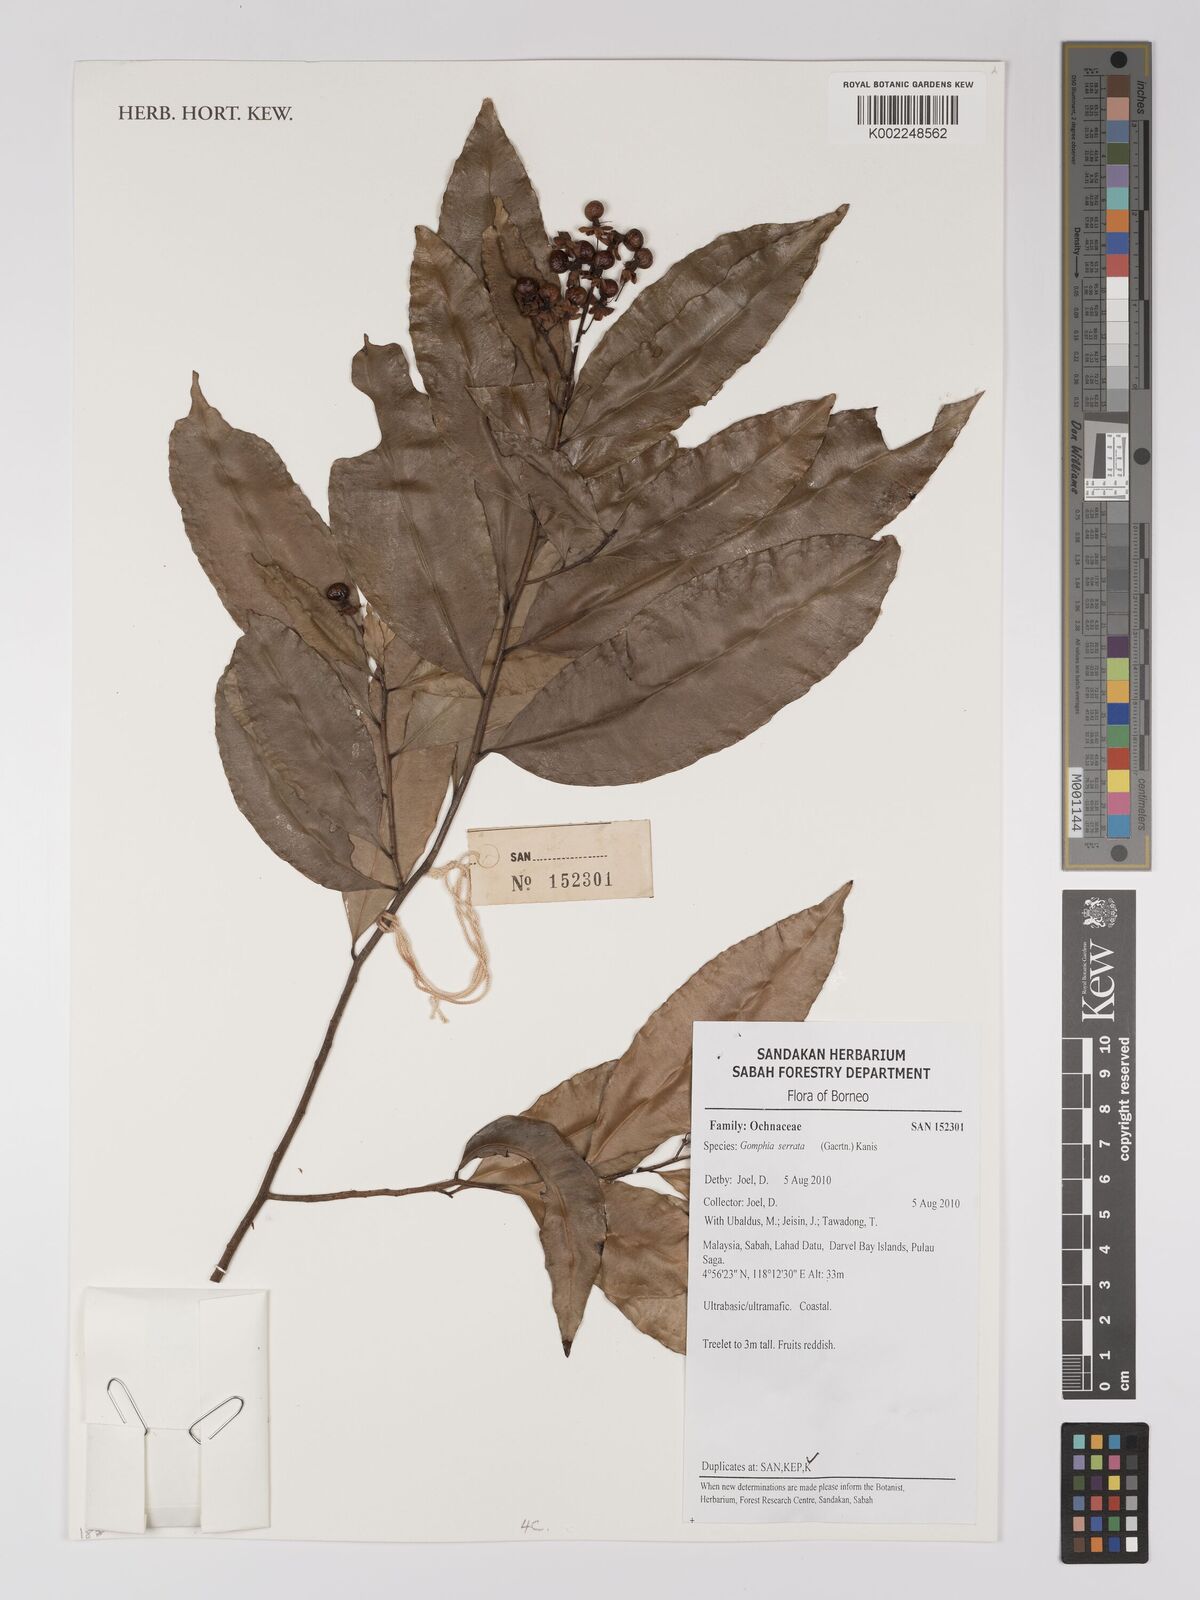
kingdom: Plantae
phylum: Tracheophyta
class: Magnoliopsida
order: Malpighiales
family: Ochnaceae
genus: Gomphia
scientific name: Gomphia serrata
